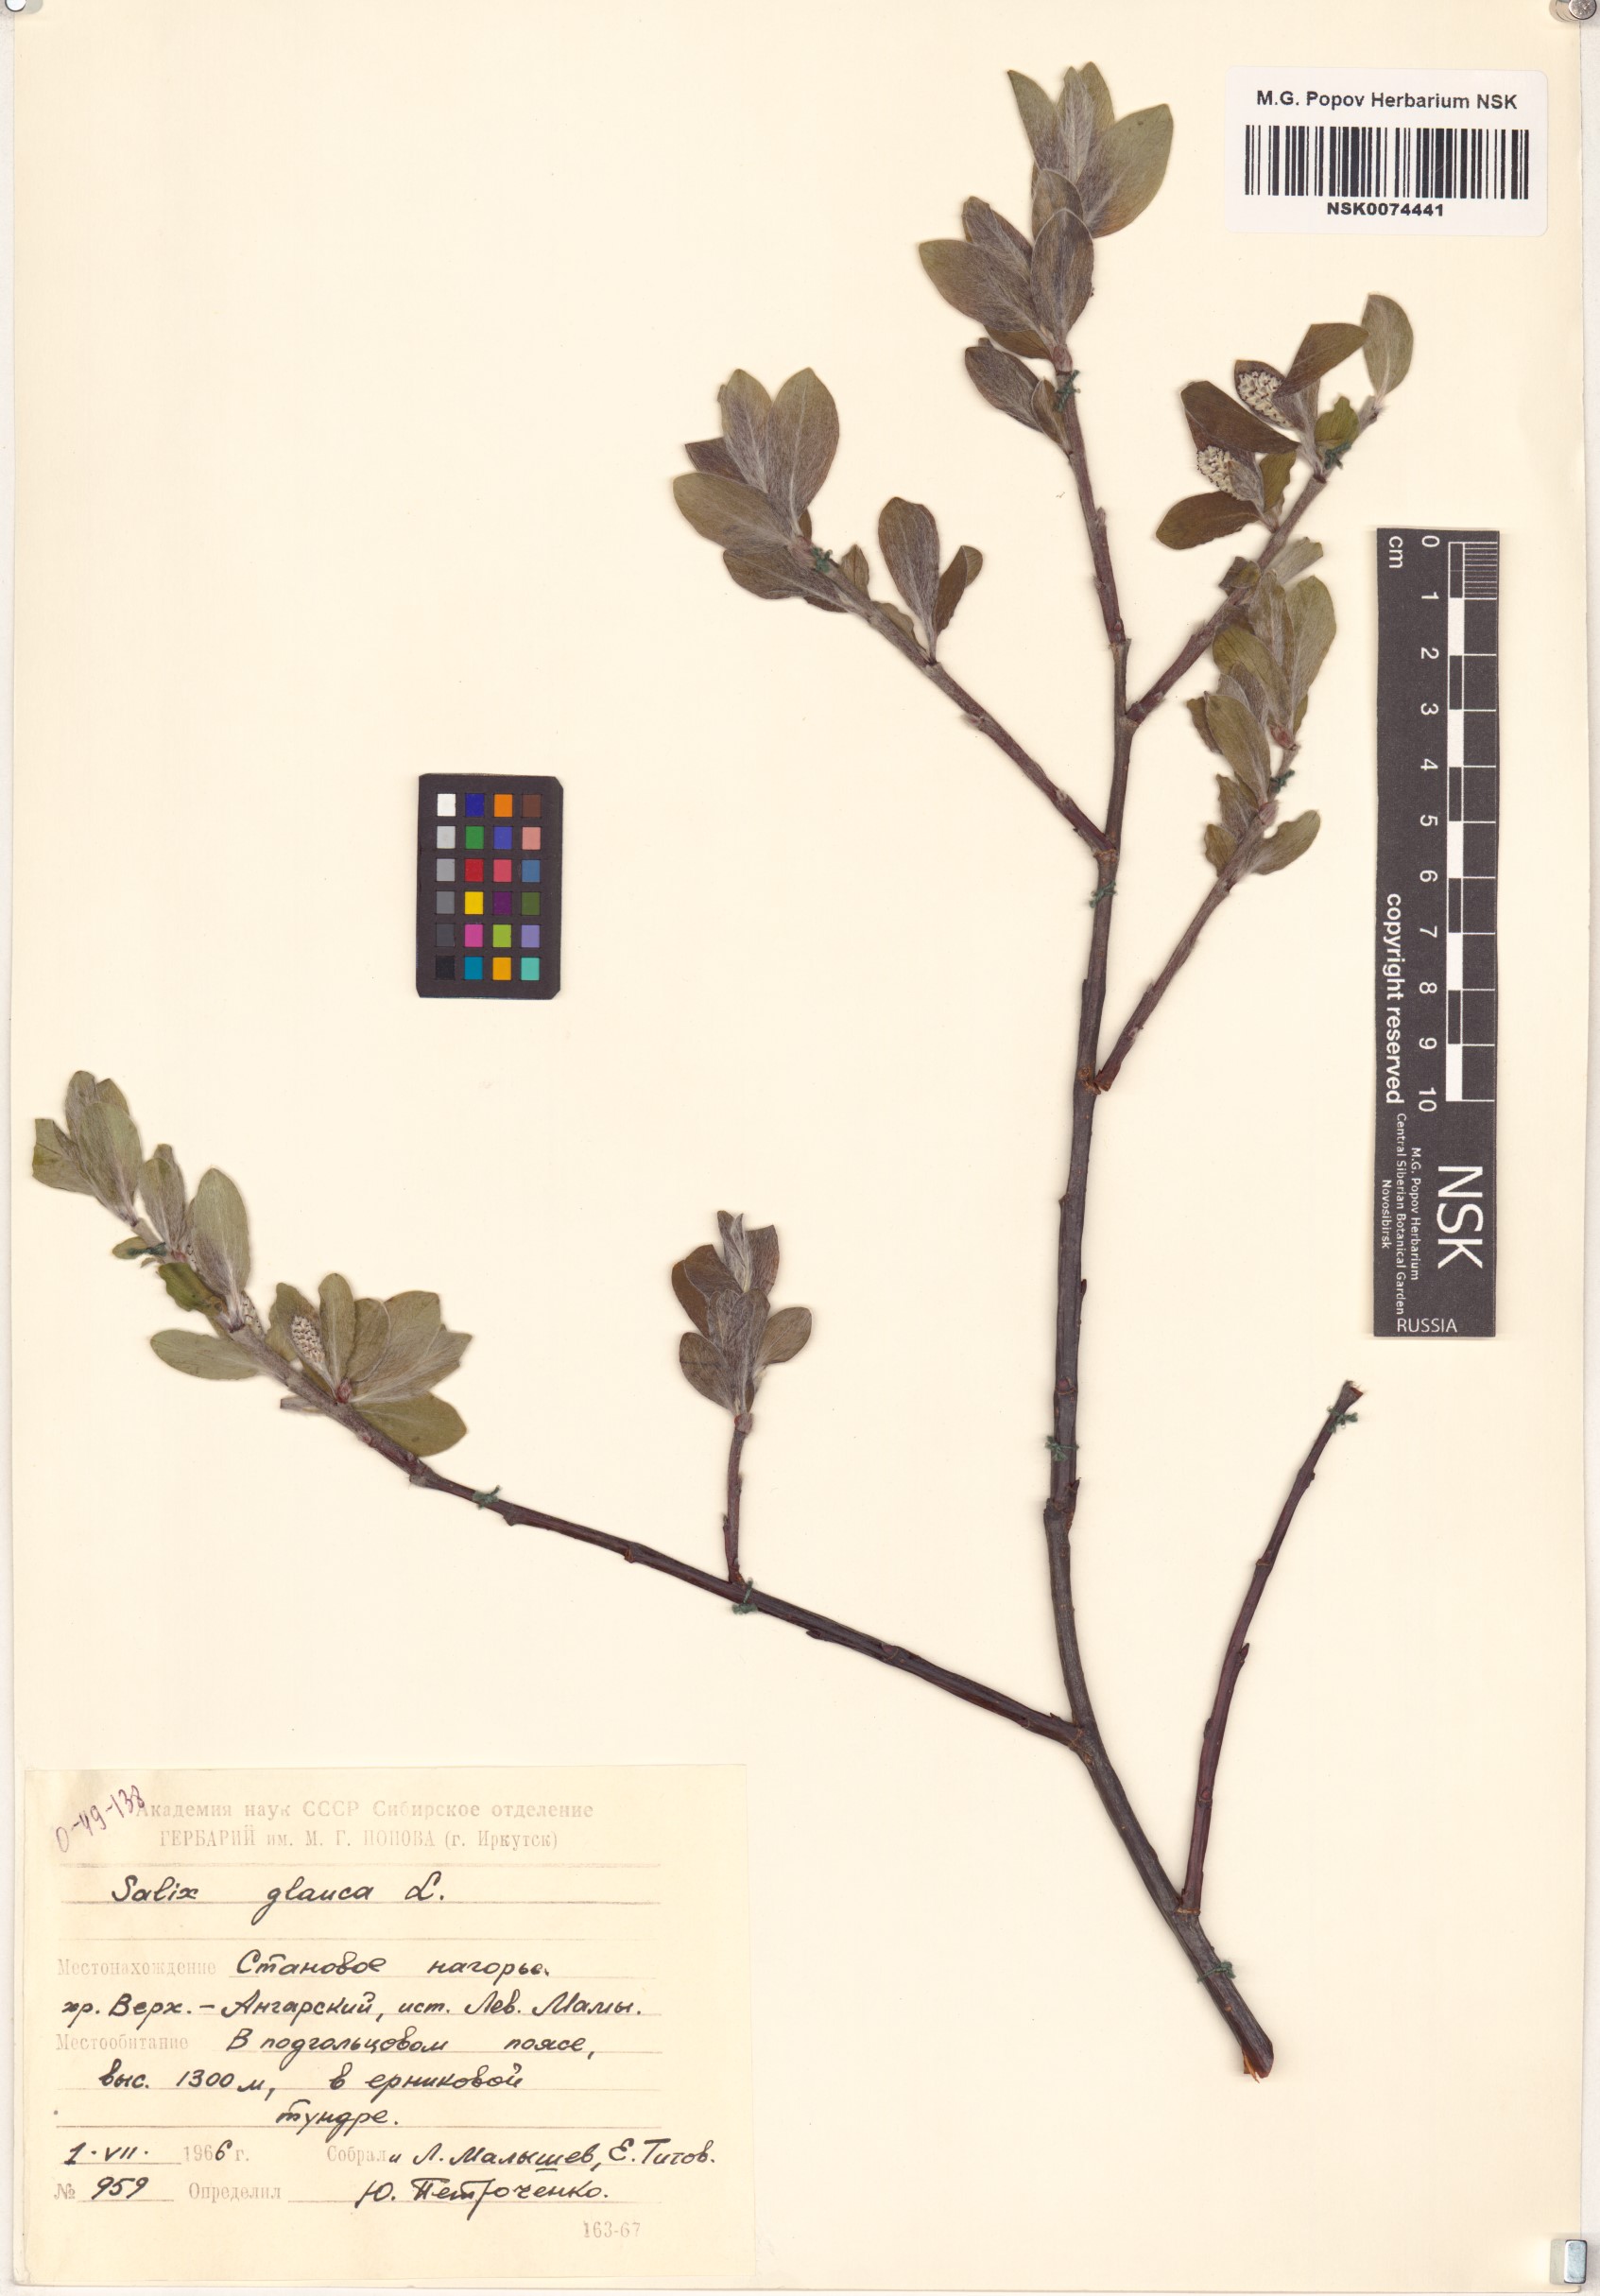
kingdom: Plantae
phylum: Tracheophyta
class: Magnoliopsida
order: Malpighiales
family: Salicaceae
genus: Salix
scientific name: Salix glauca
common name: Glaucous willow
